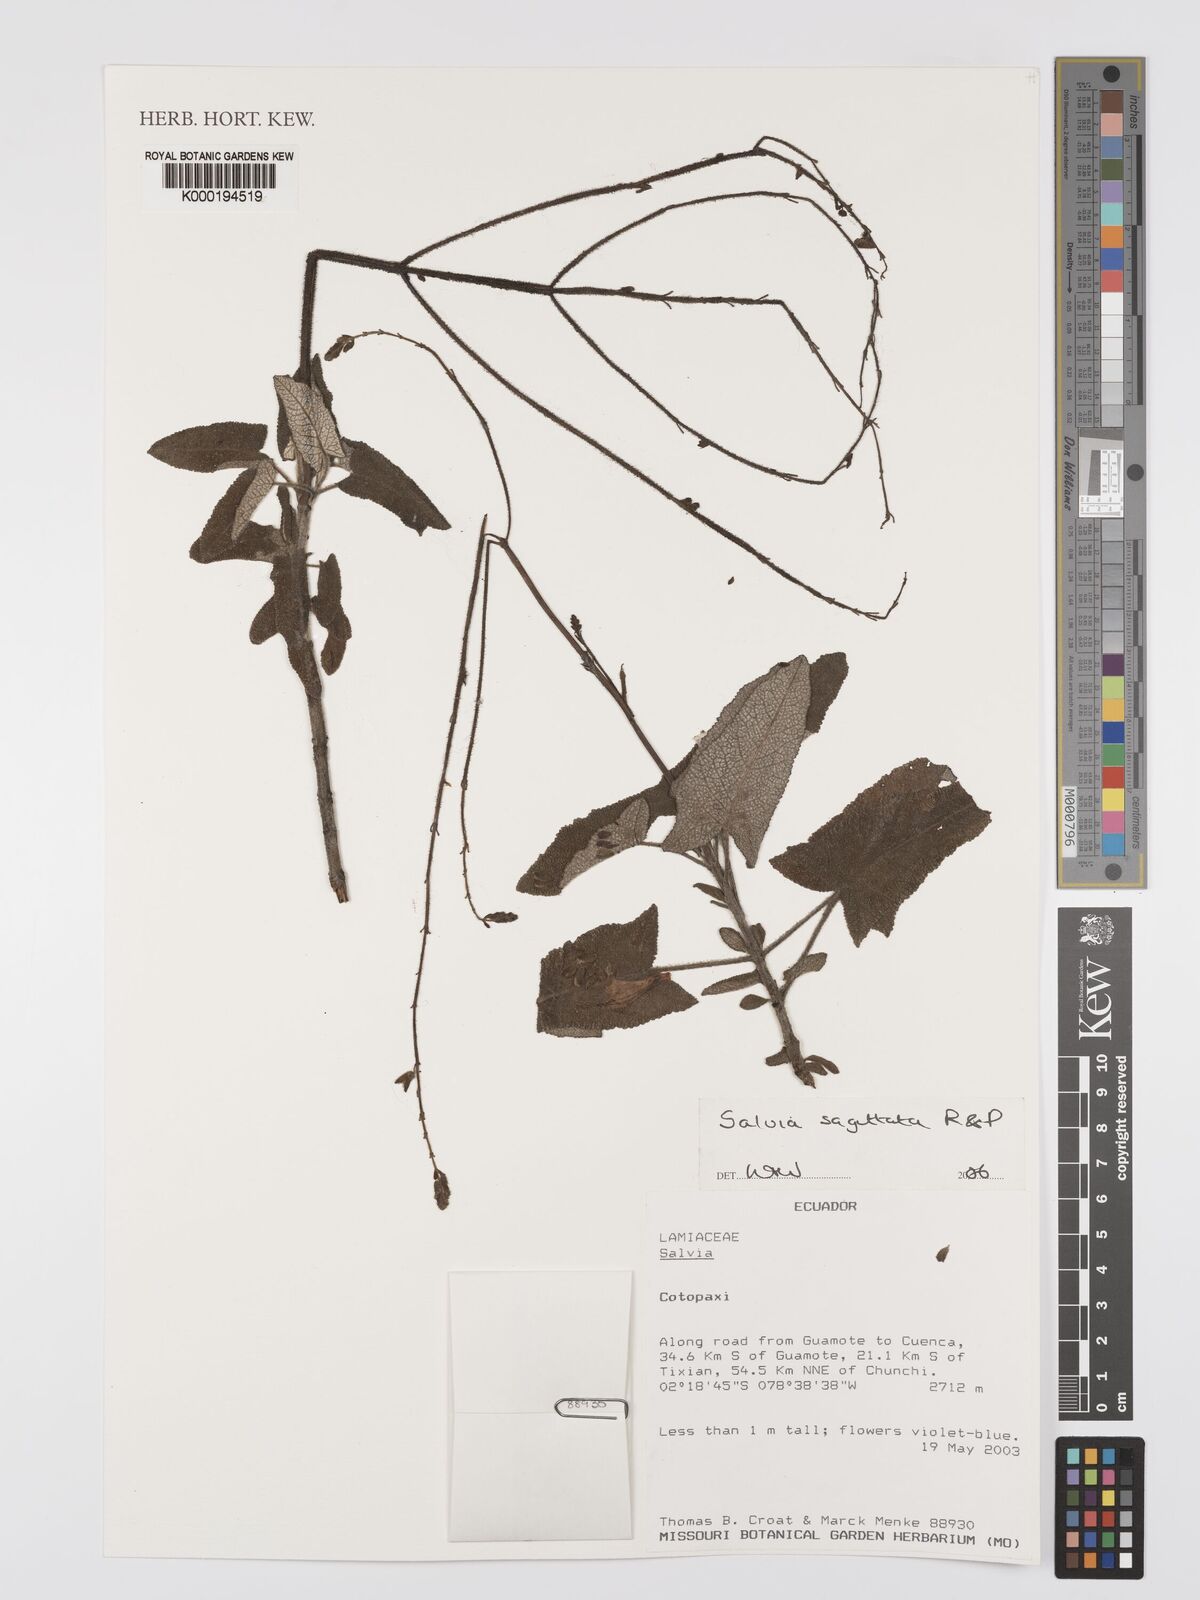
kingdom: Plantae
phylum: Tracheophyta
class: Magnoliopsida
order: Lamiales
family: Lamiaceae
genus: Salvia
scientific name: Salvia sagittata
